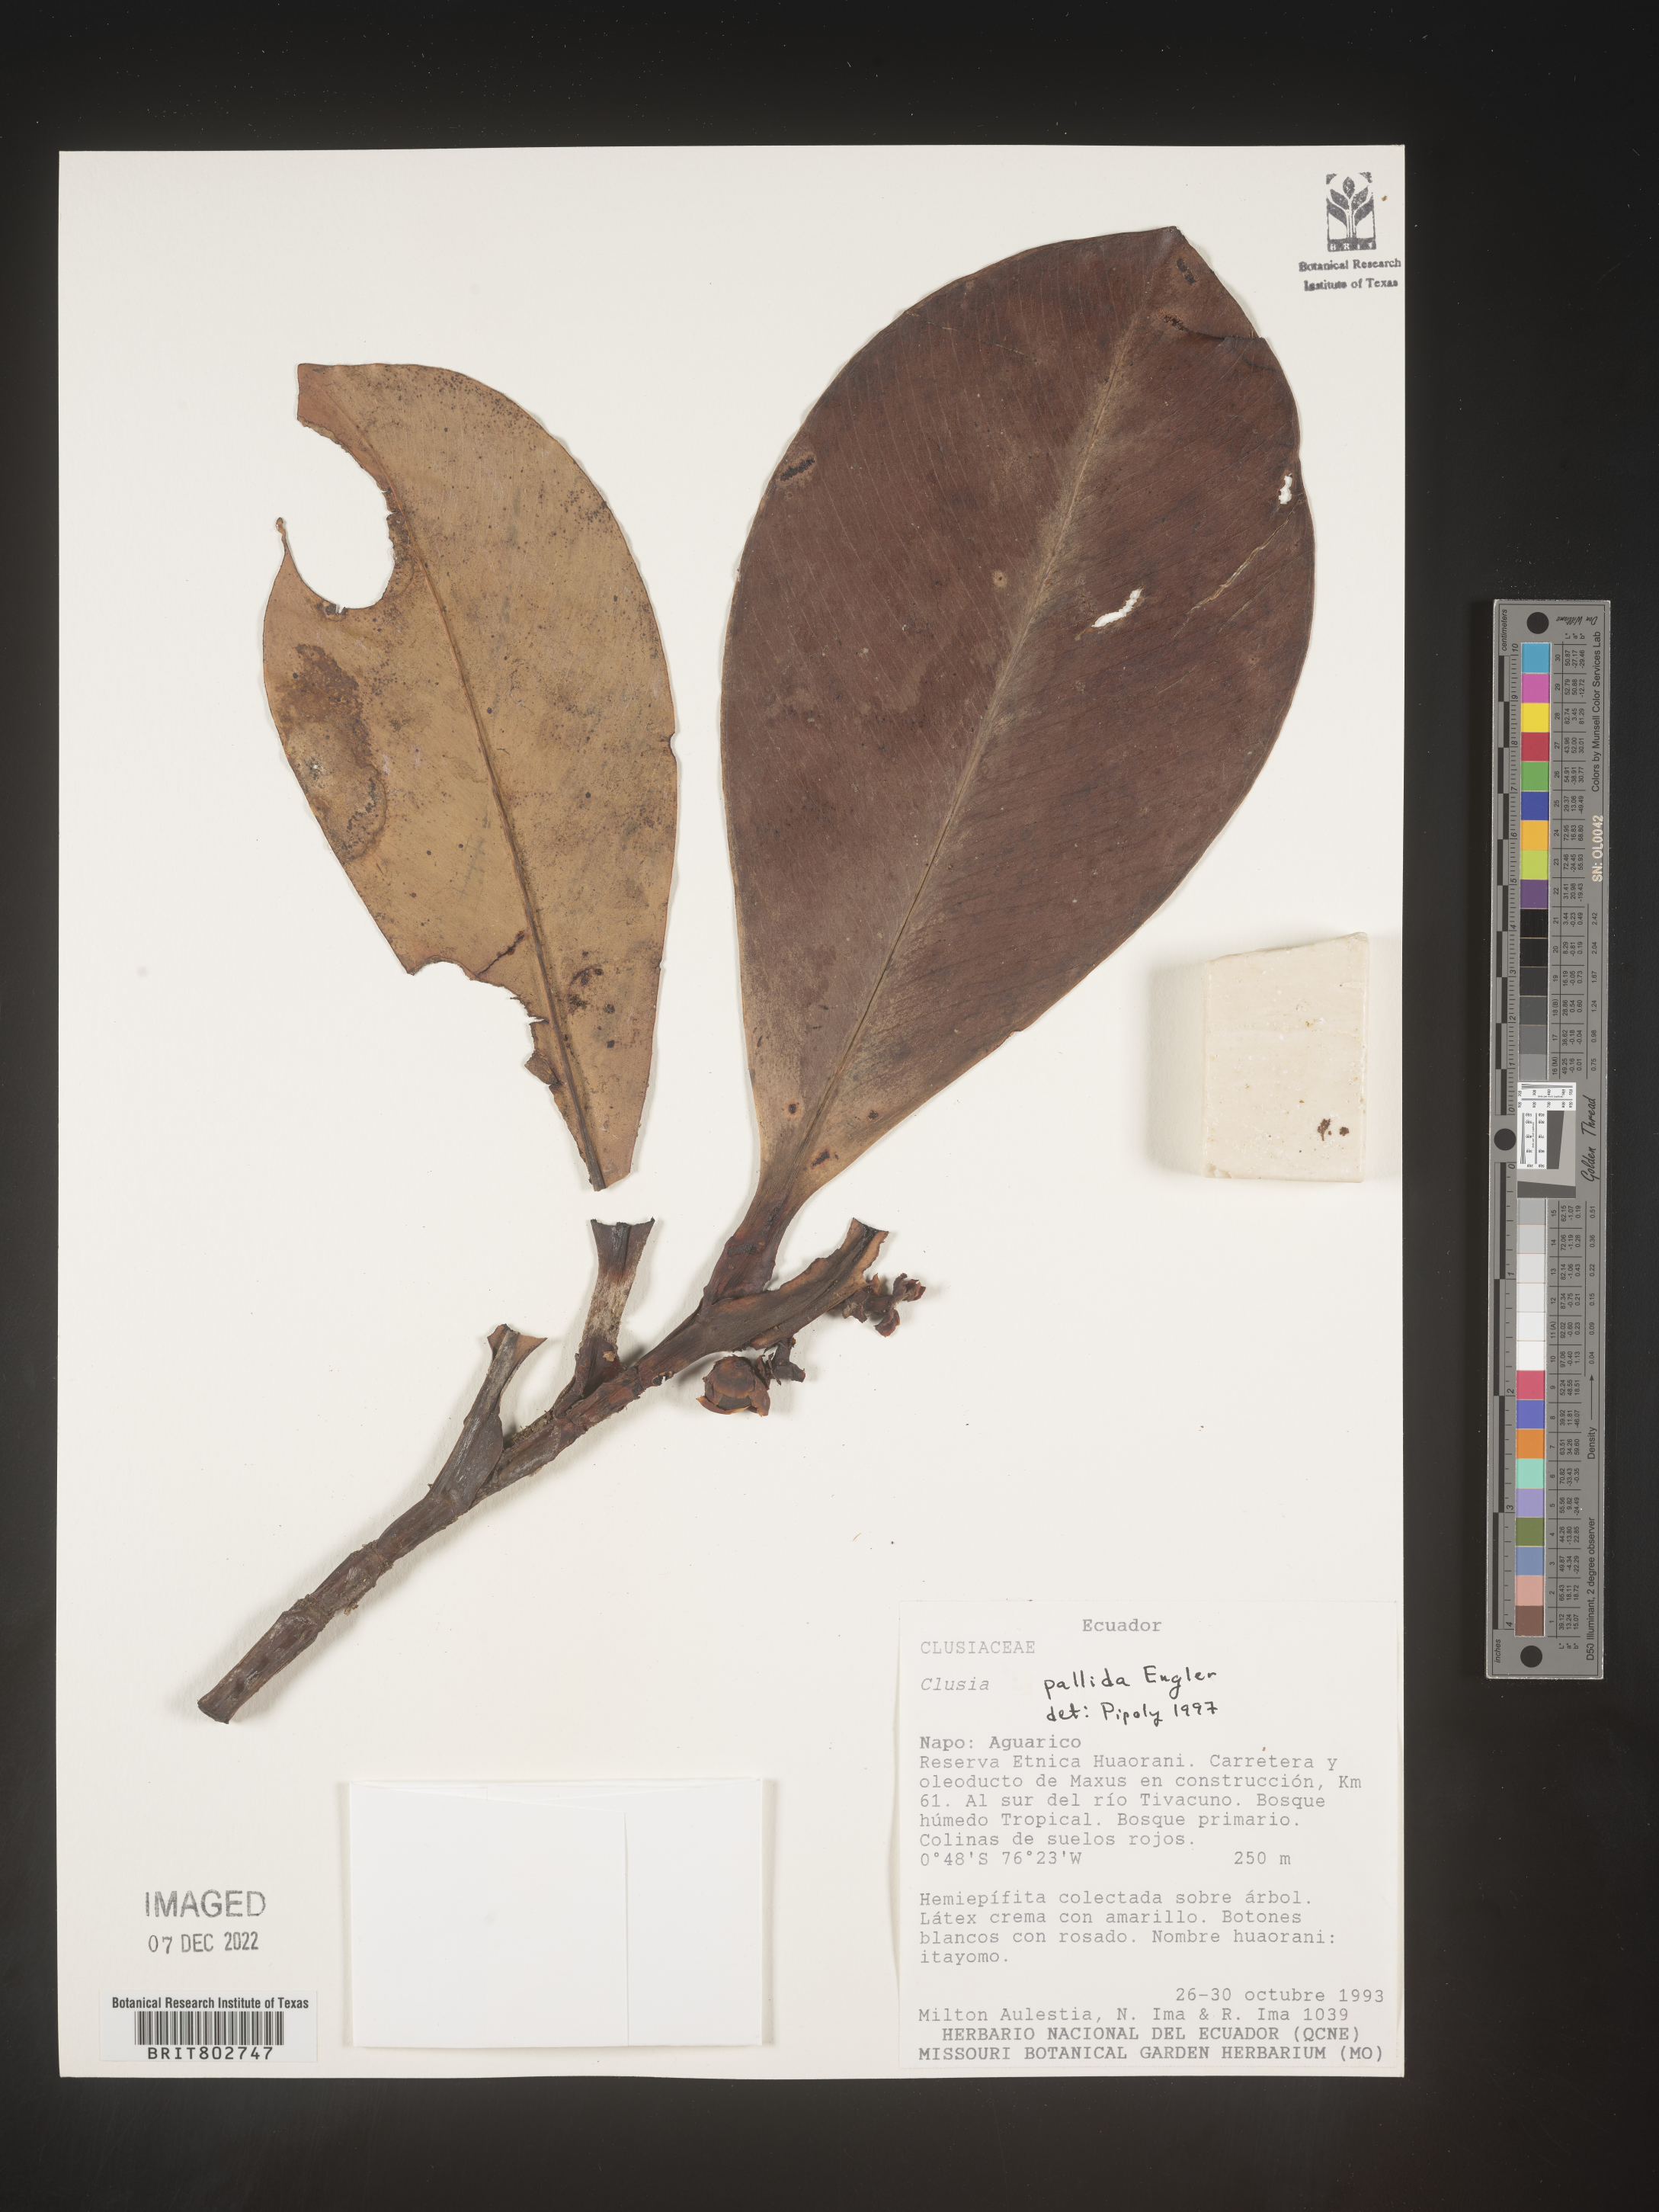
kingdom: Plantae
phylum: Tracheophyta
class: Magnoliopsida
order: Malpighiales
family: Clusiaceae
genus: Clusia
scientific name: Clusia pallida
